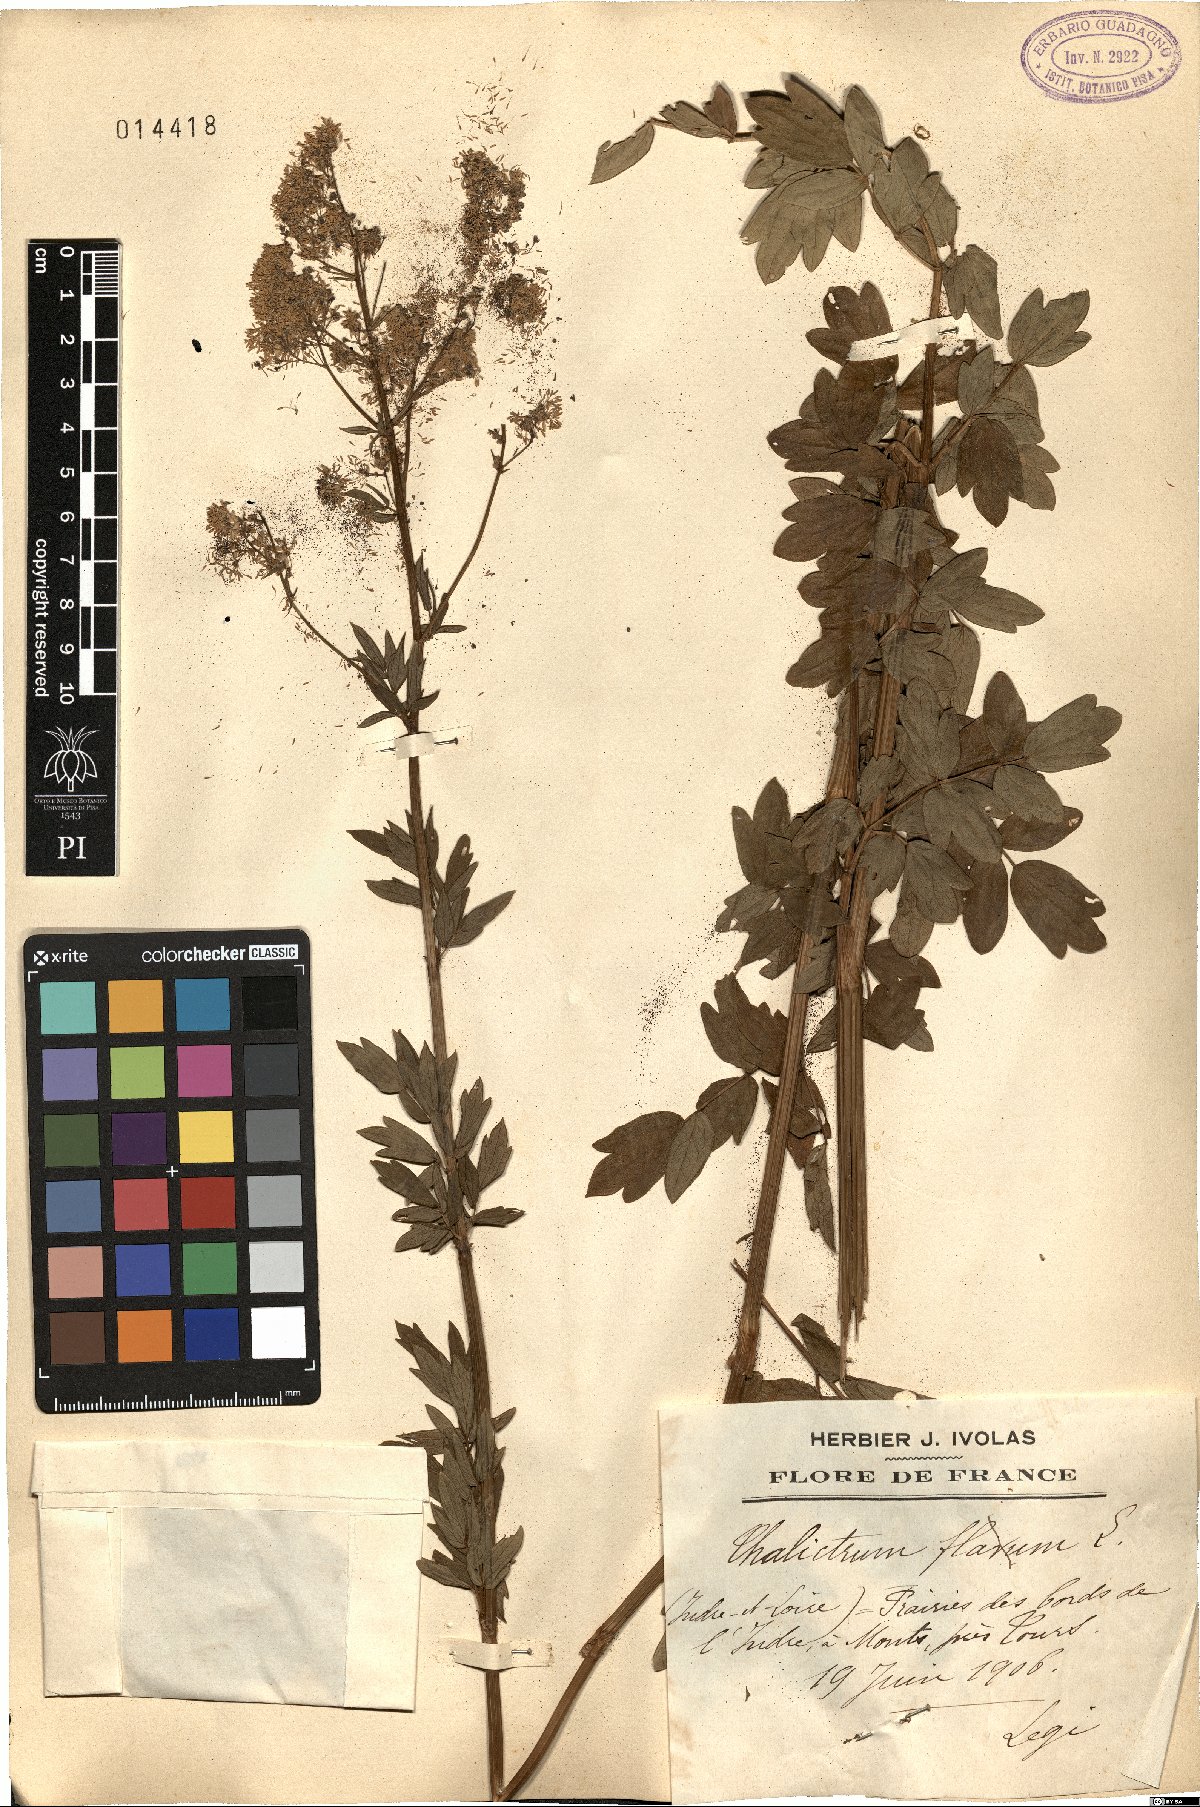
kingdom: Plantae
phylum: Tracheophyta
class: Magnoliopsida
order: Ranunculales
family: Ranunculaceae
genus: Thalictrum
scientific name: Thalictrum flavum
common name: Common meadow-rue
